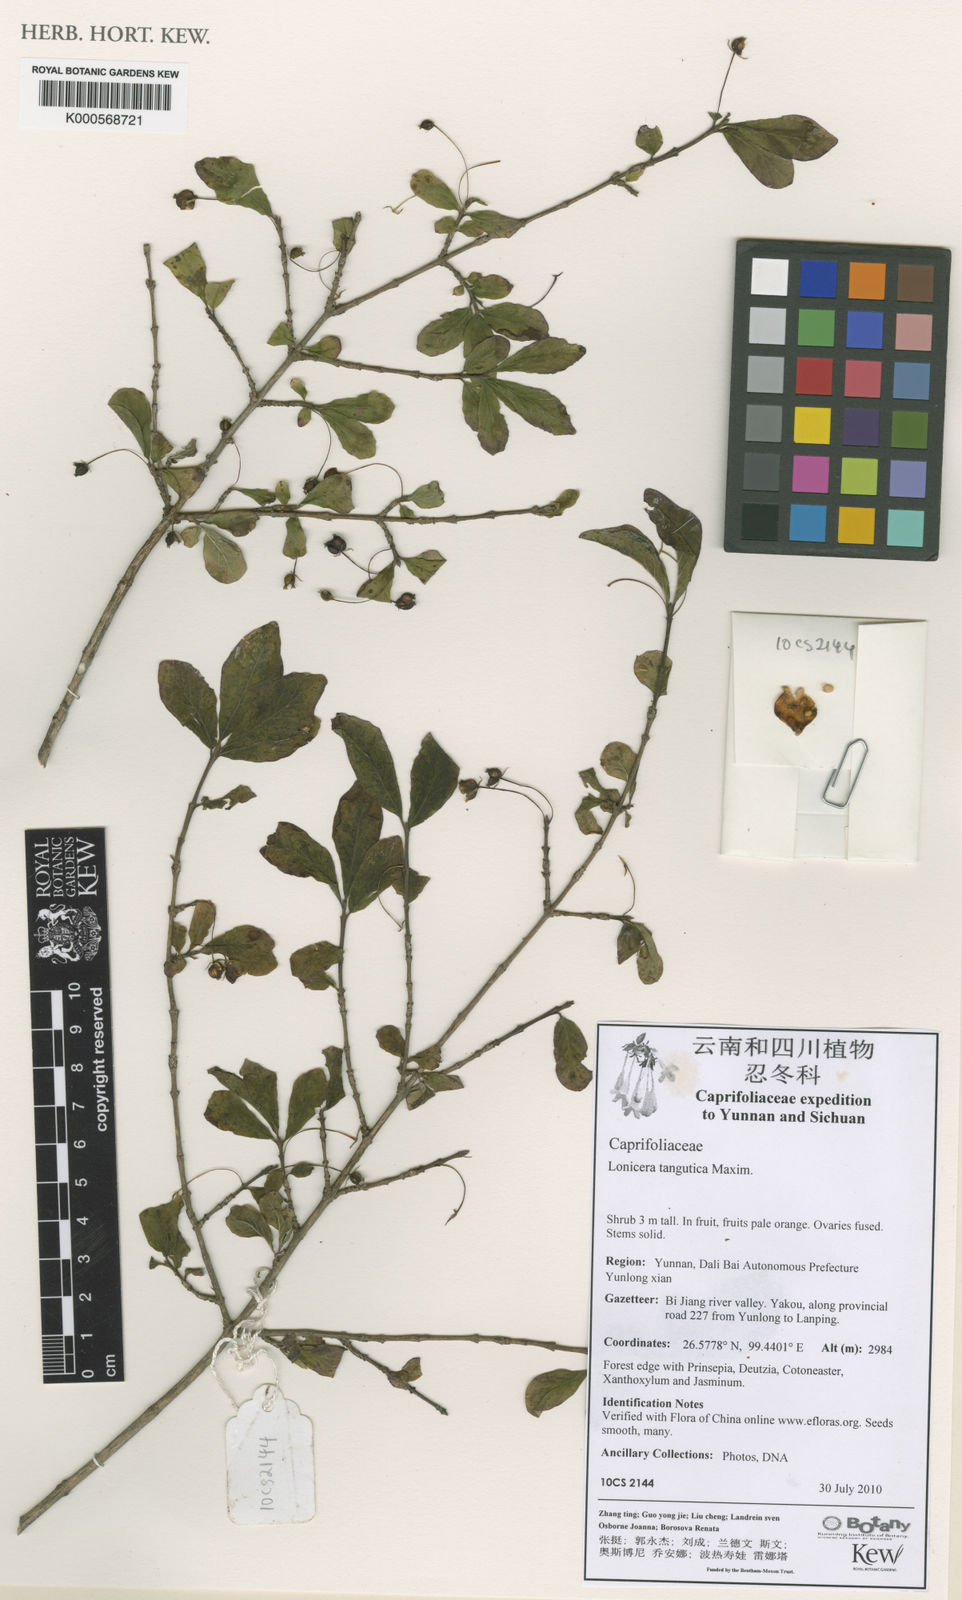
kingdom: Plantae
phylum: Tracheophyta
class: Magnoliopsida
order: Dipsacales
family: Caprifoliaceae
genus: Lonicera
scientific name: Lonicera tangutica
